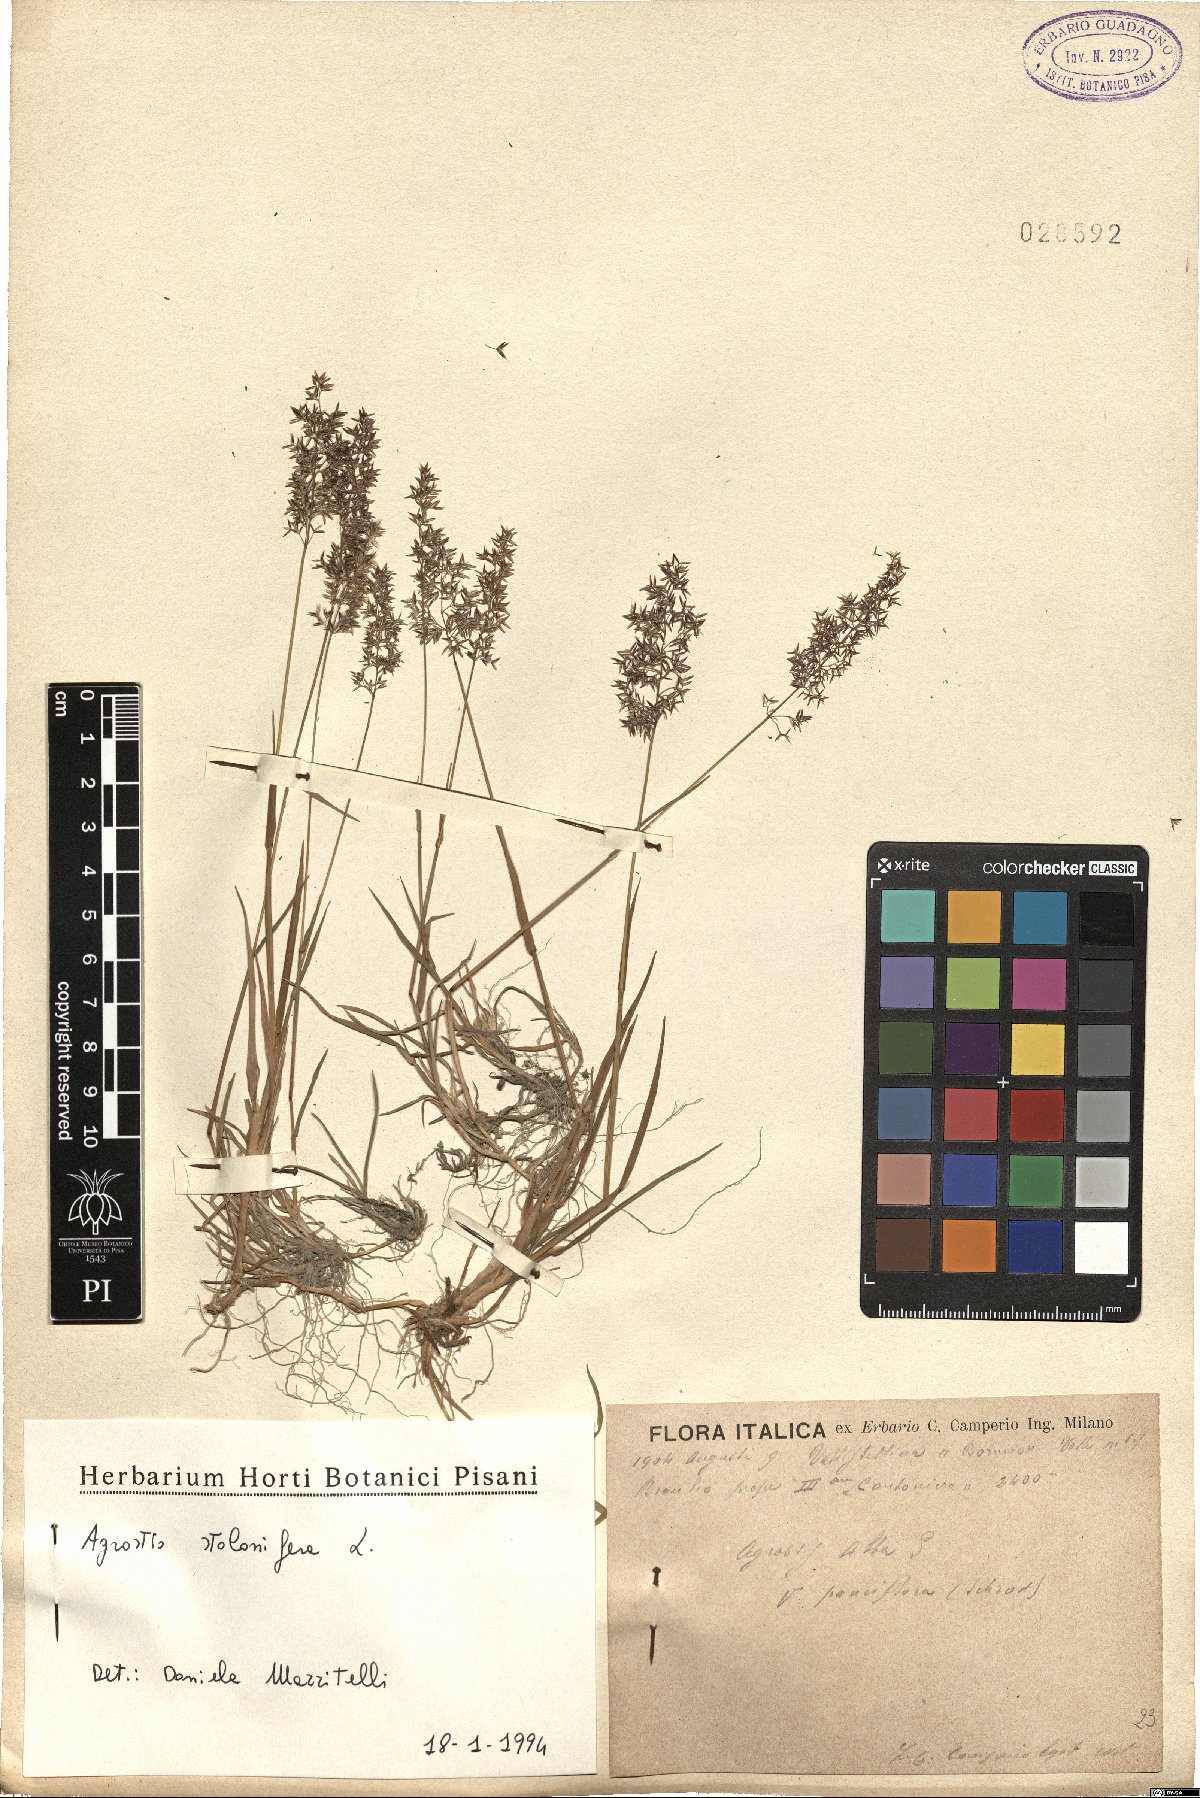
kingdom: Plantae
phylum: Tracheophyta
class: Liliopsida
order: Poales
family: Poaceae
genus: Agrostis
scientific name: Agrostis stolonifera
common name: Creeping bentgrass
